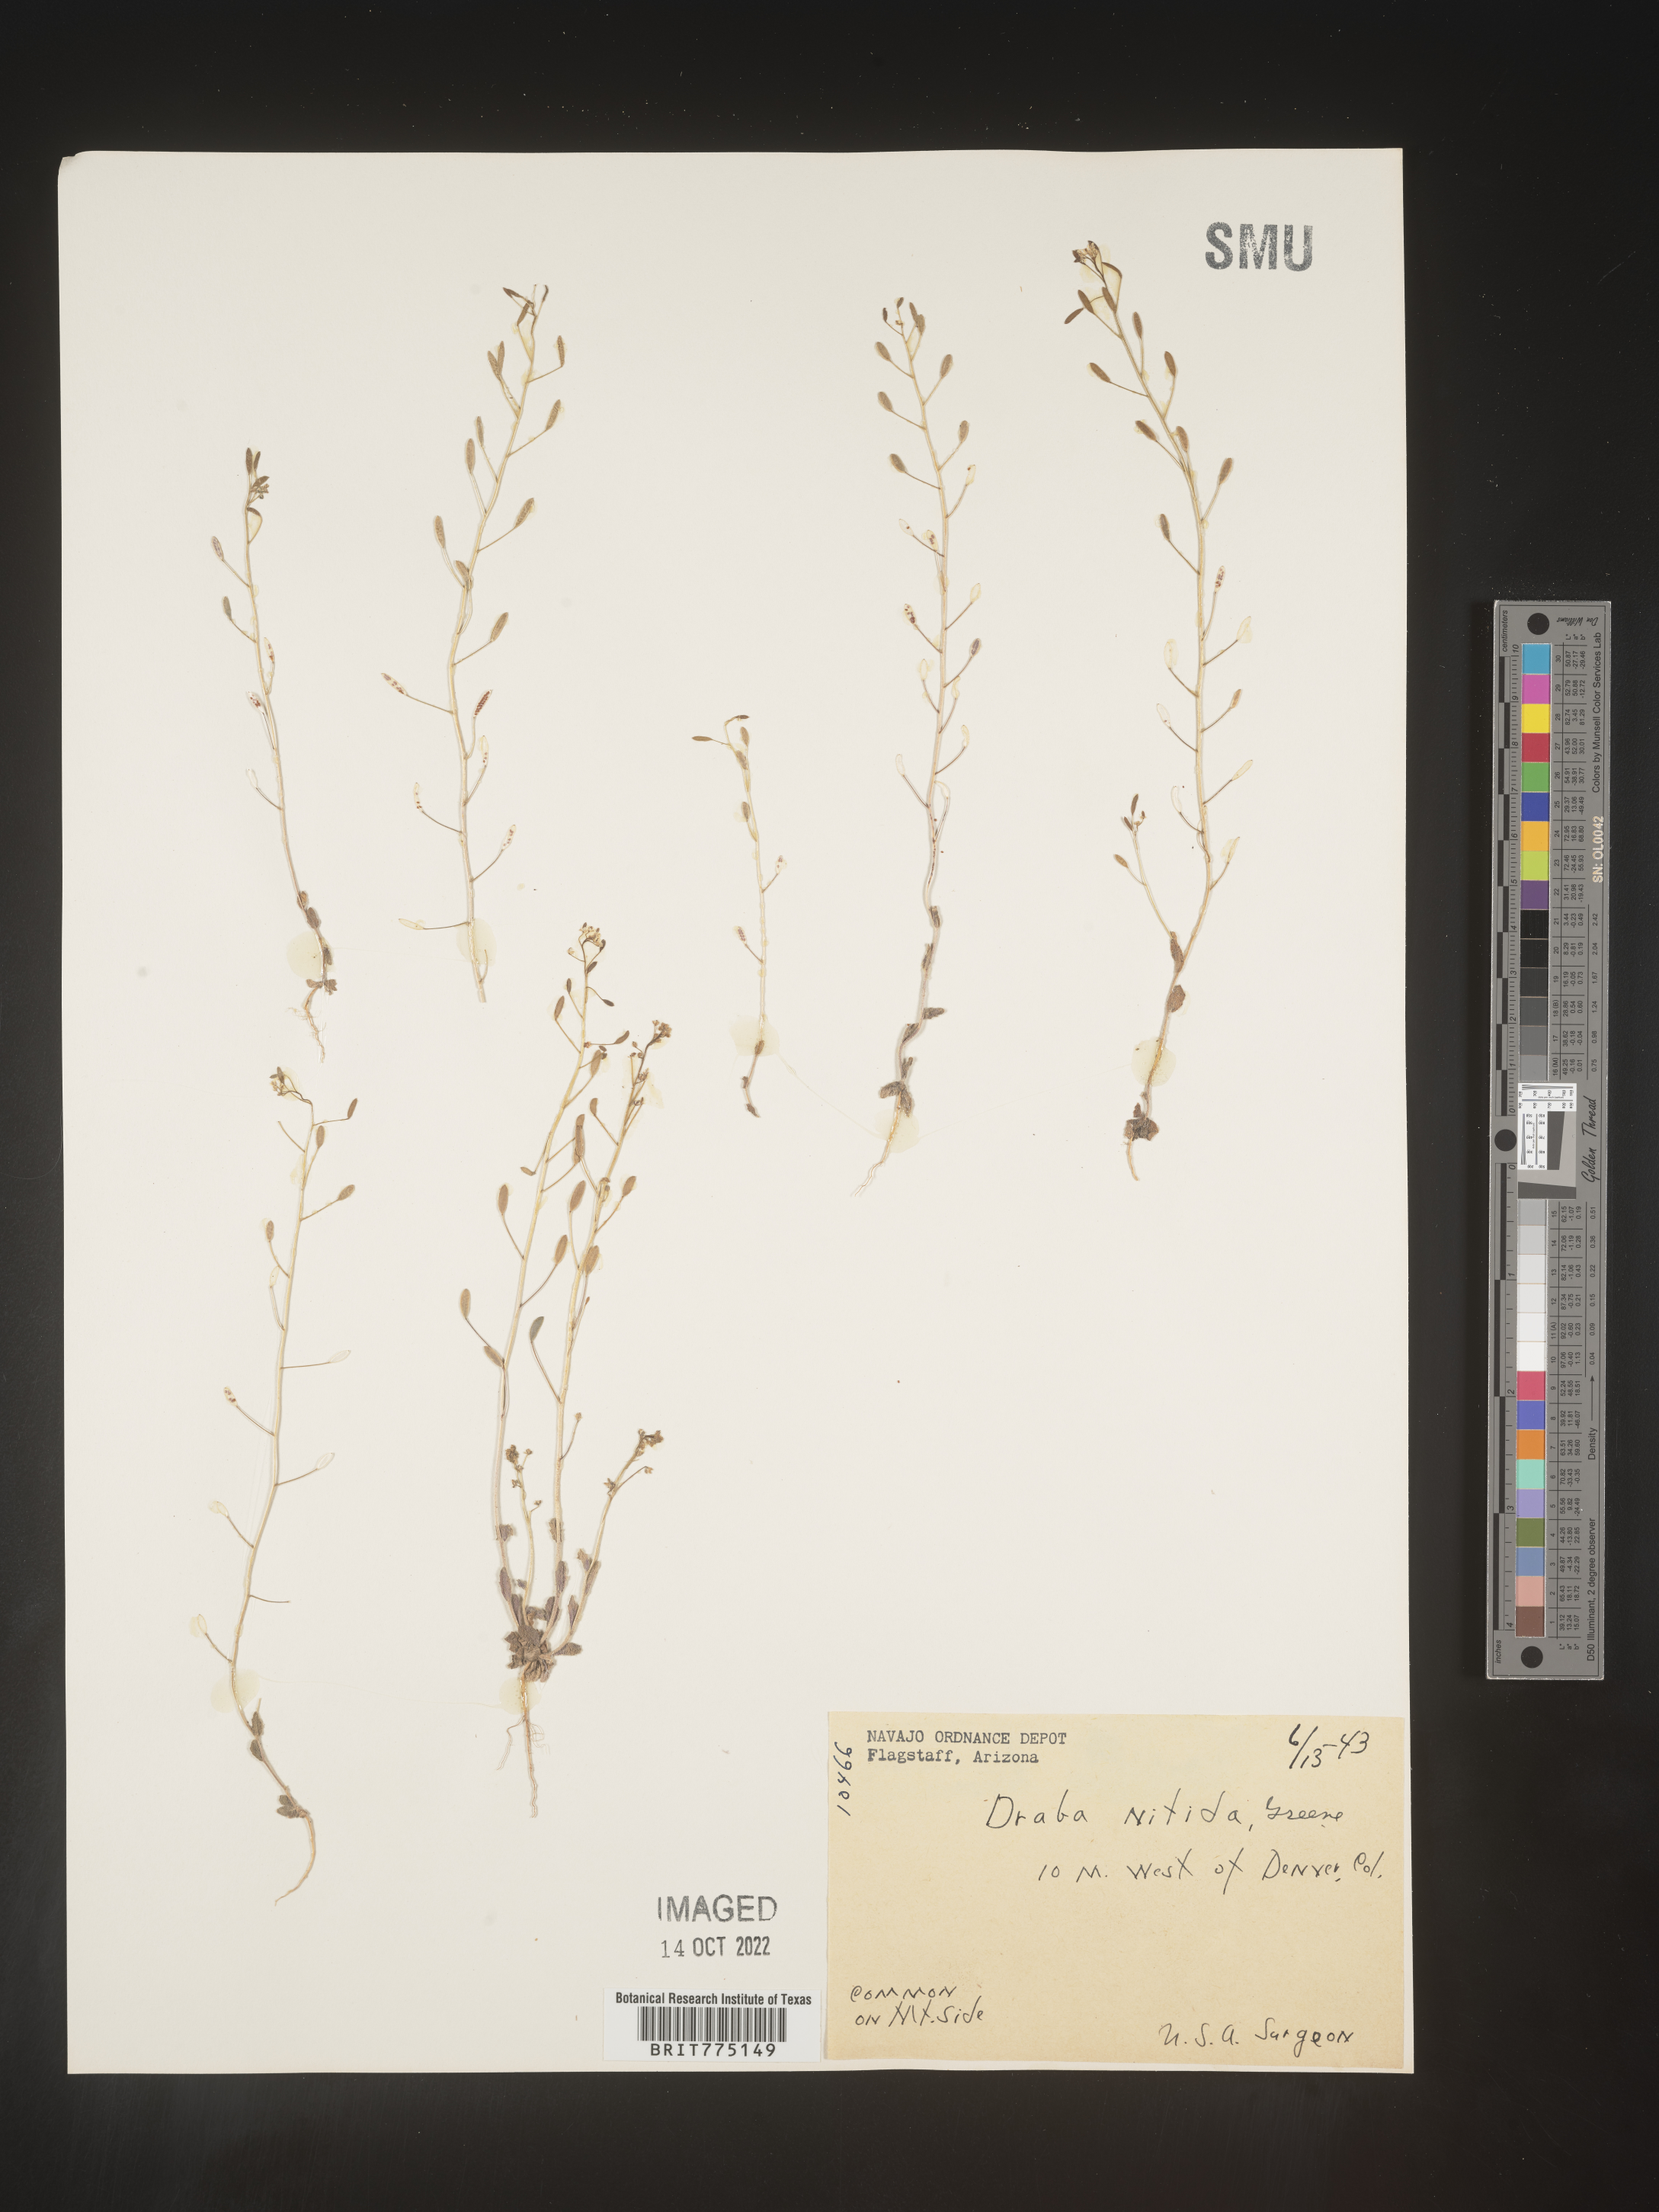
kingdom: Plantae
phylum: Tracheophyta
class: Magnoliopsida
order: Brassicales
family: Brassicaceae
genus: Draba
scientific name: Draba
